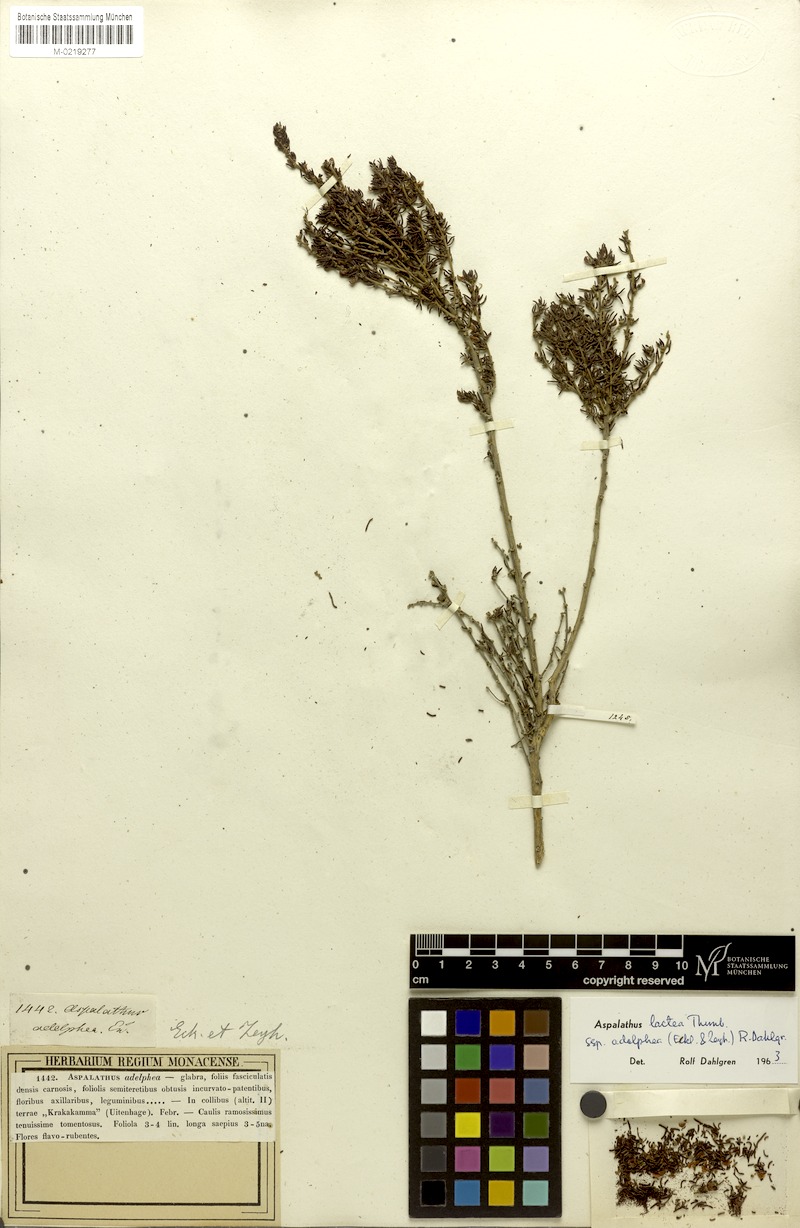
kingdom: Plantae
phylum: Tracheophyta
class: Magnoliopsida
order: Fabales
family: Fabaceae
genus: Aspalathus
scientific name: Aspalathus lactea
